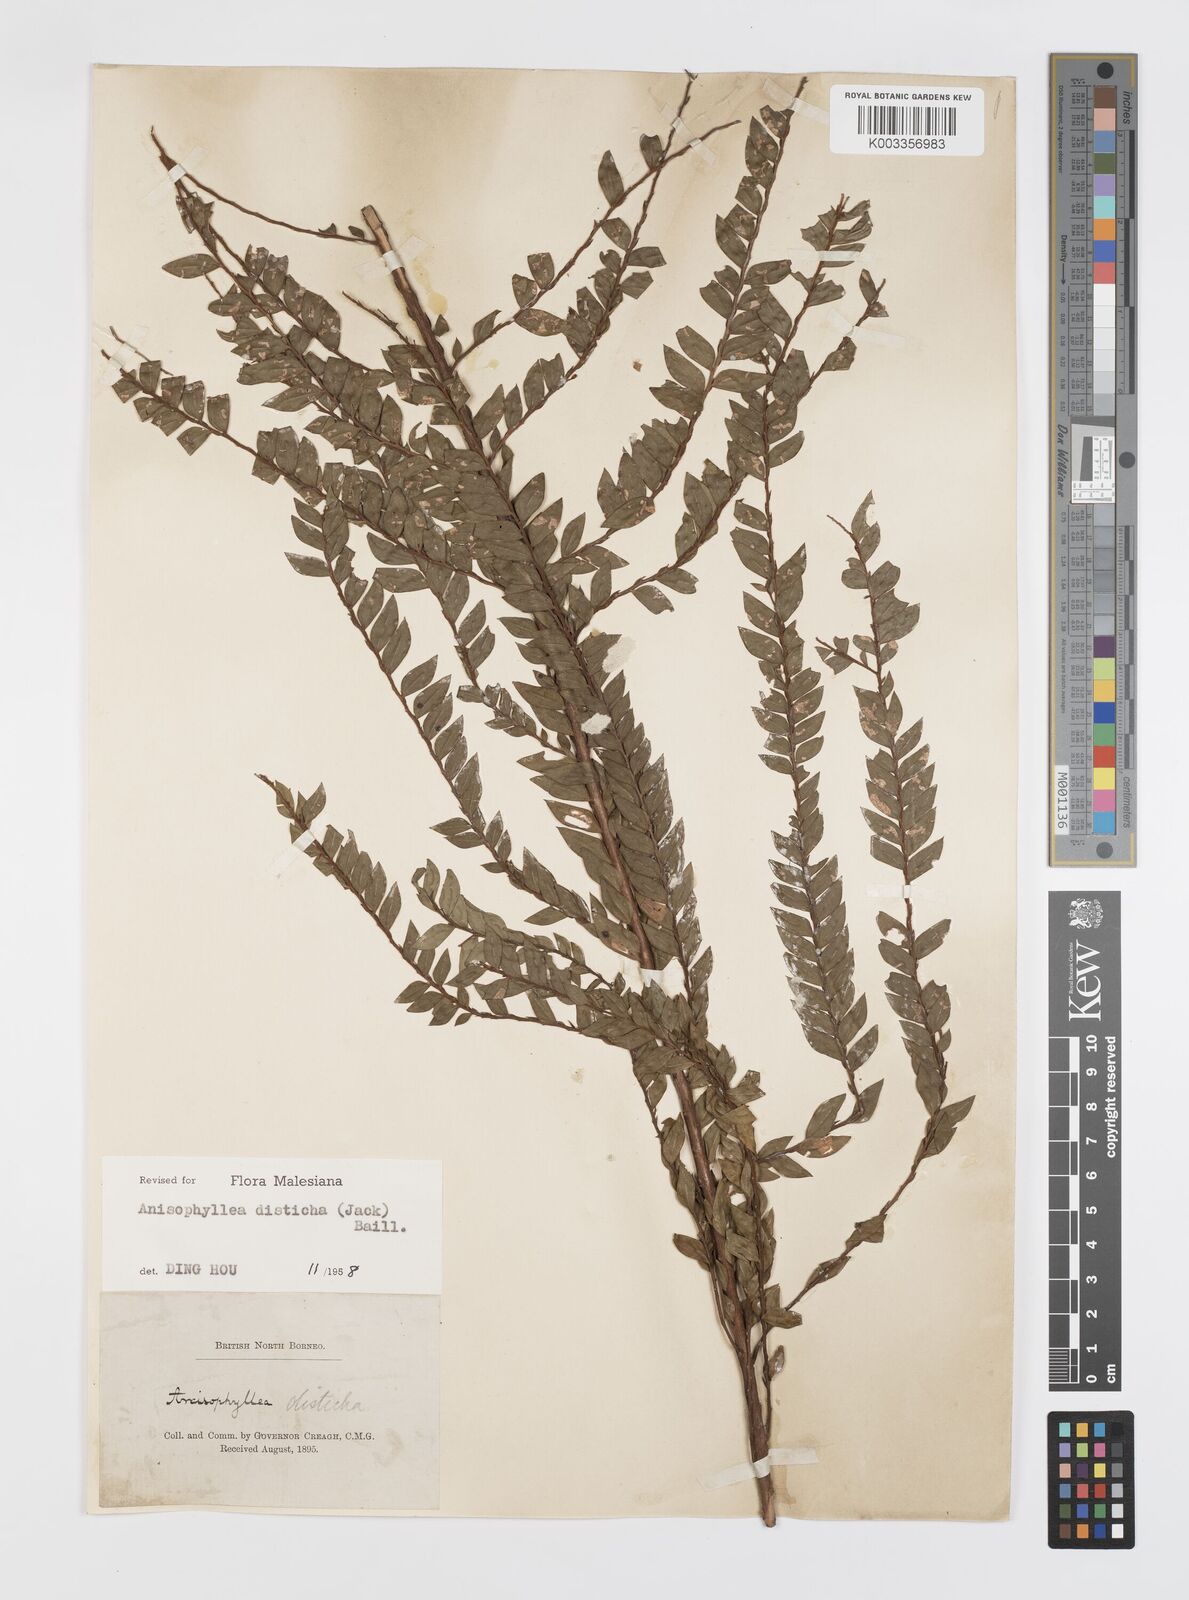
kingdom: Plantae
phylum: Tracheophyta
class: Magnoliopsida
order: Cucurbitales
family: Anisophylleaceae
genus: Anisophyllea
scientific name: Anisophyllea disticha
